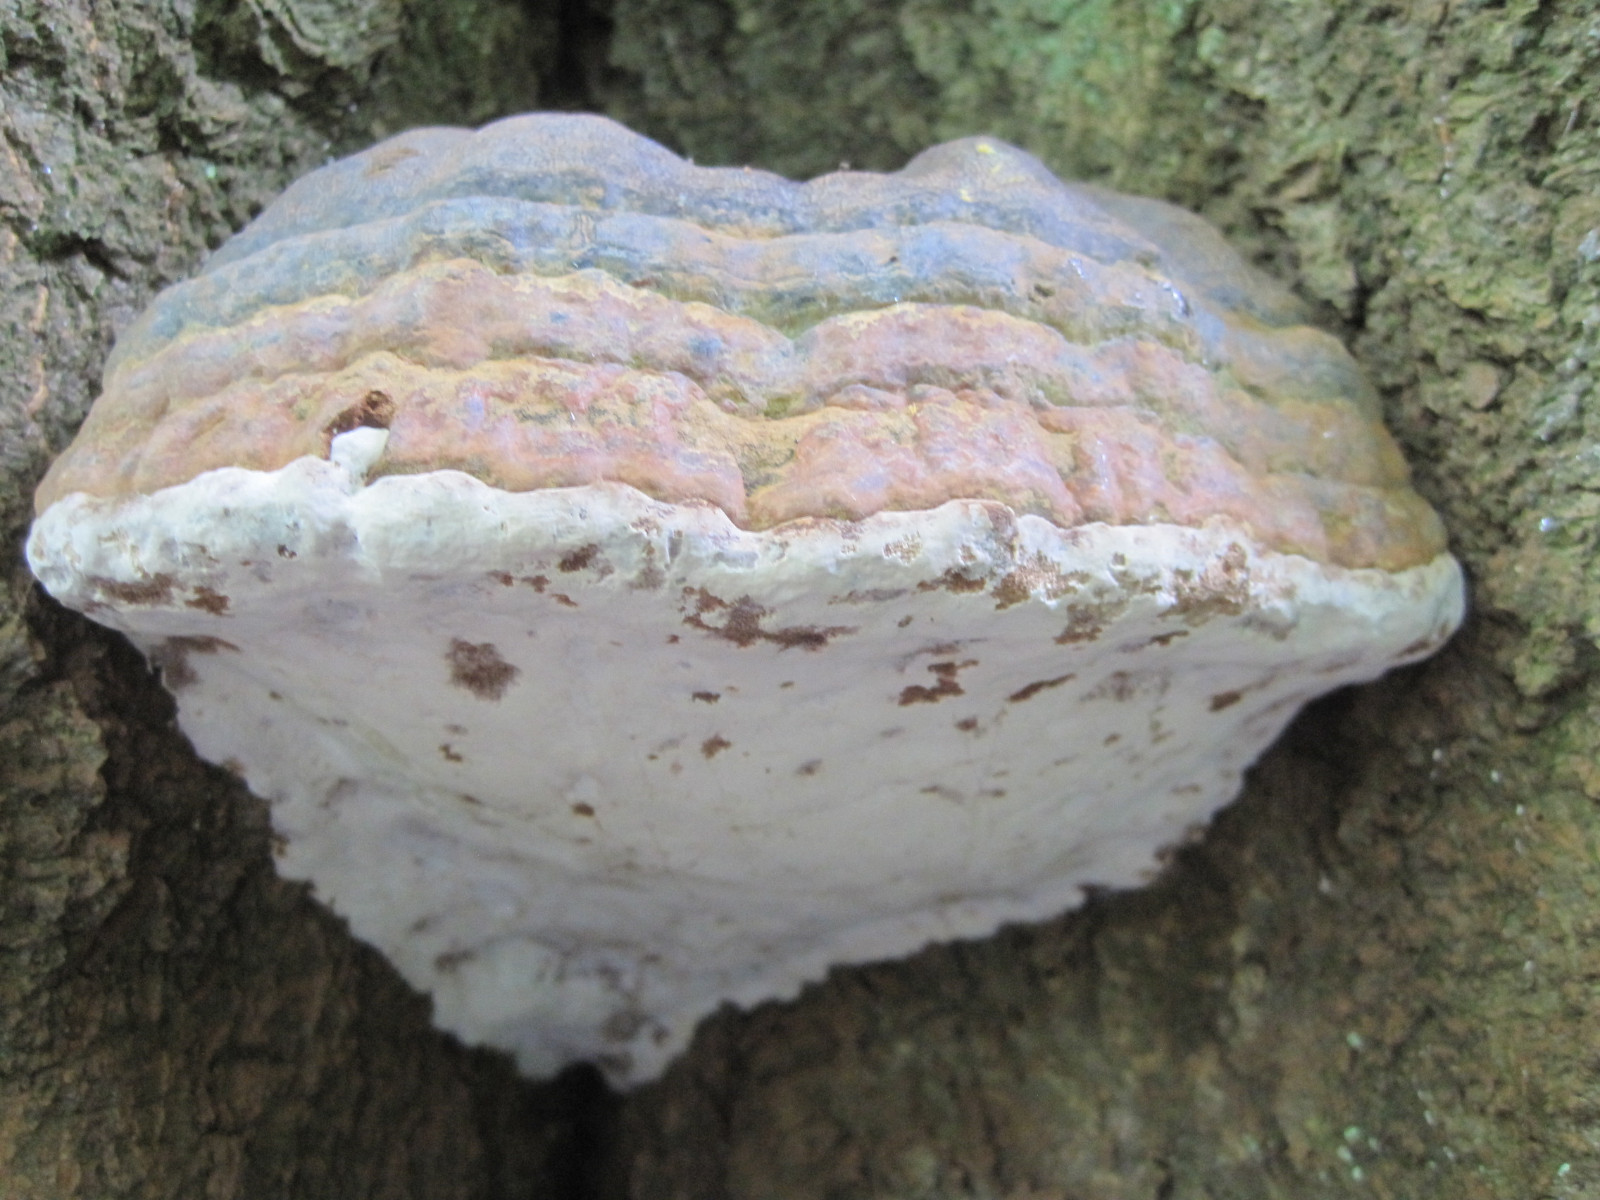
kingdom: Fungi
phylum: Basidiomycota
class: Agaricomycetes
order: Polyporales
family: Polyporaceae
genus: Ganoderma
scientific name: Ganoderma pfeifferi
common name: kobberrød lakporesvamp
